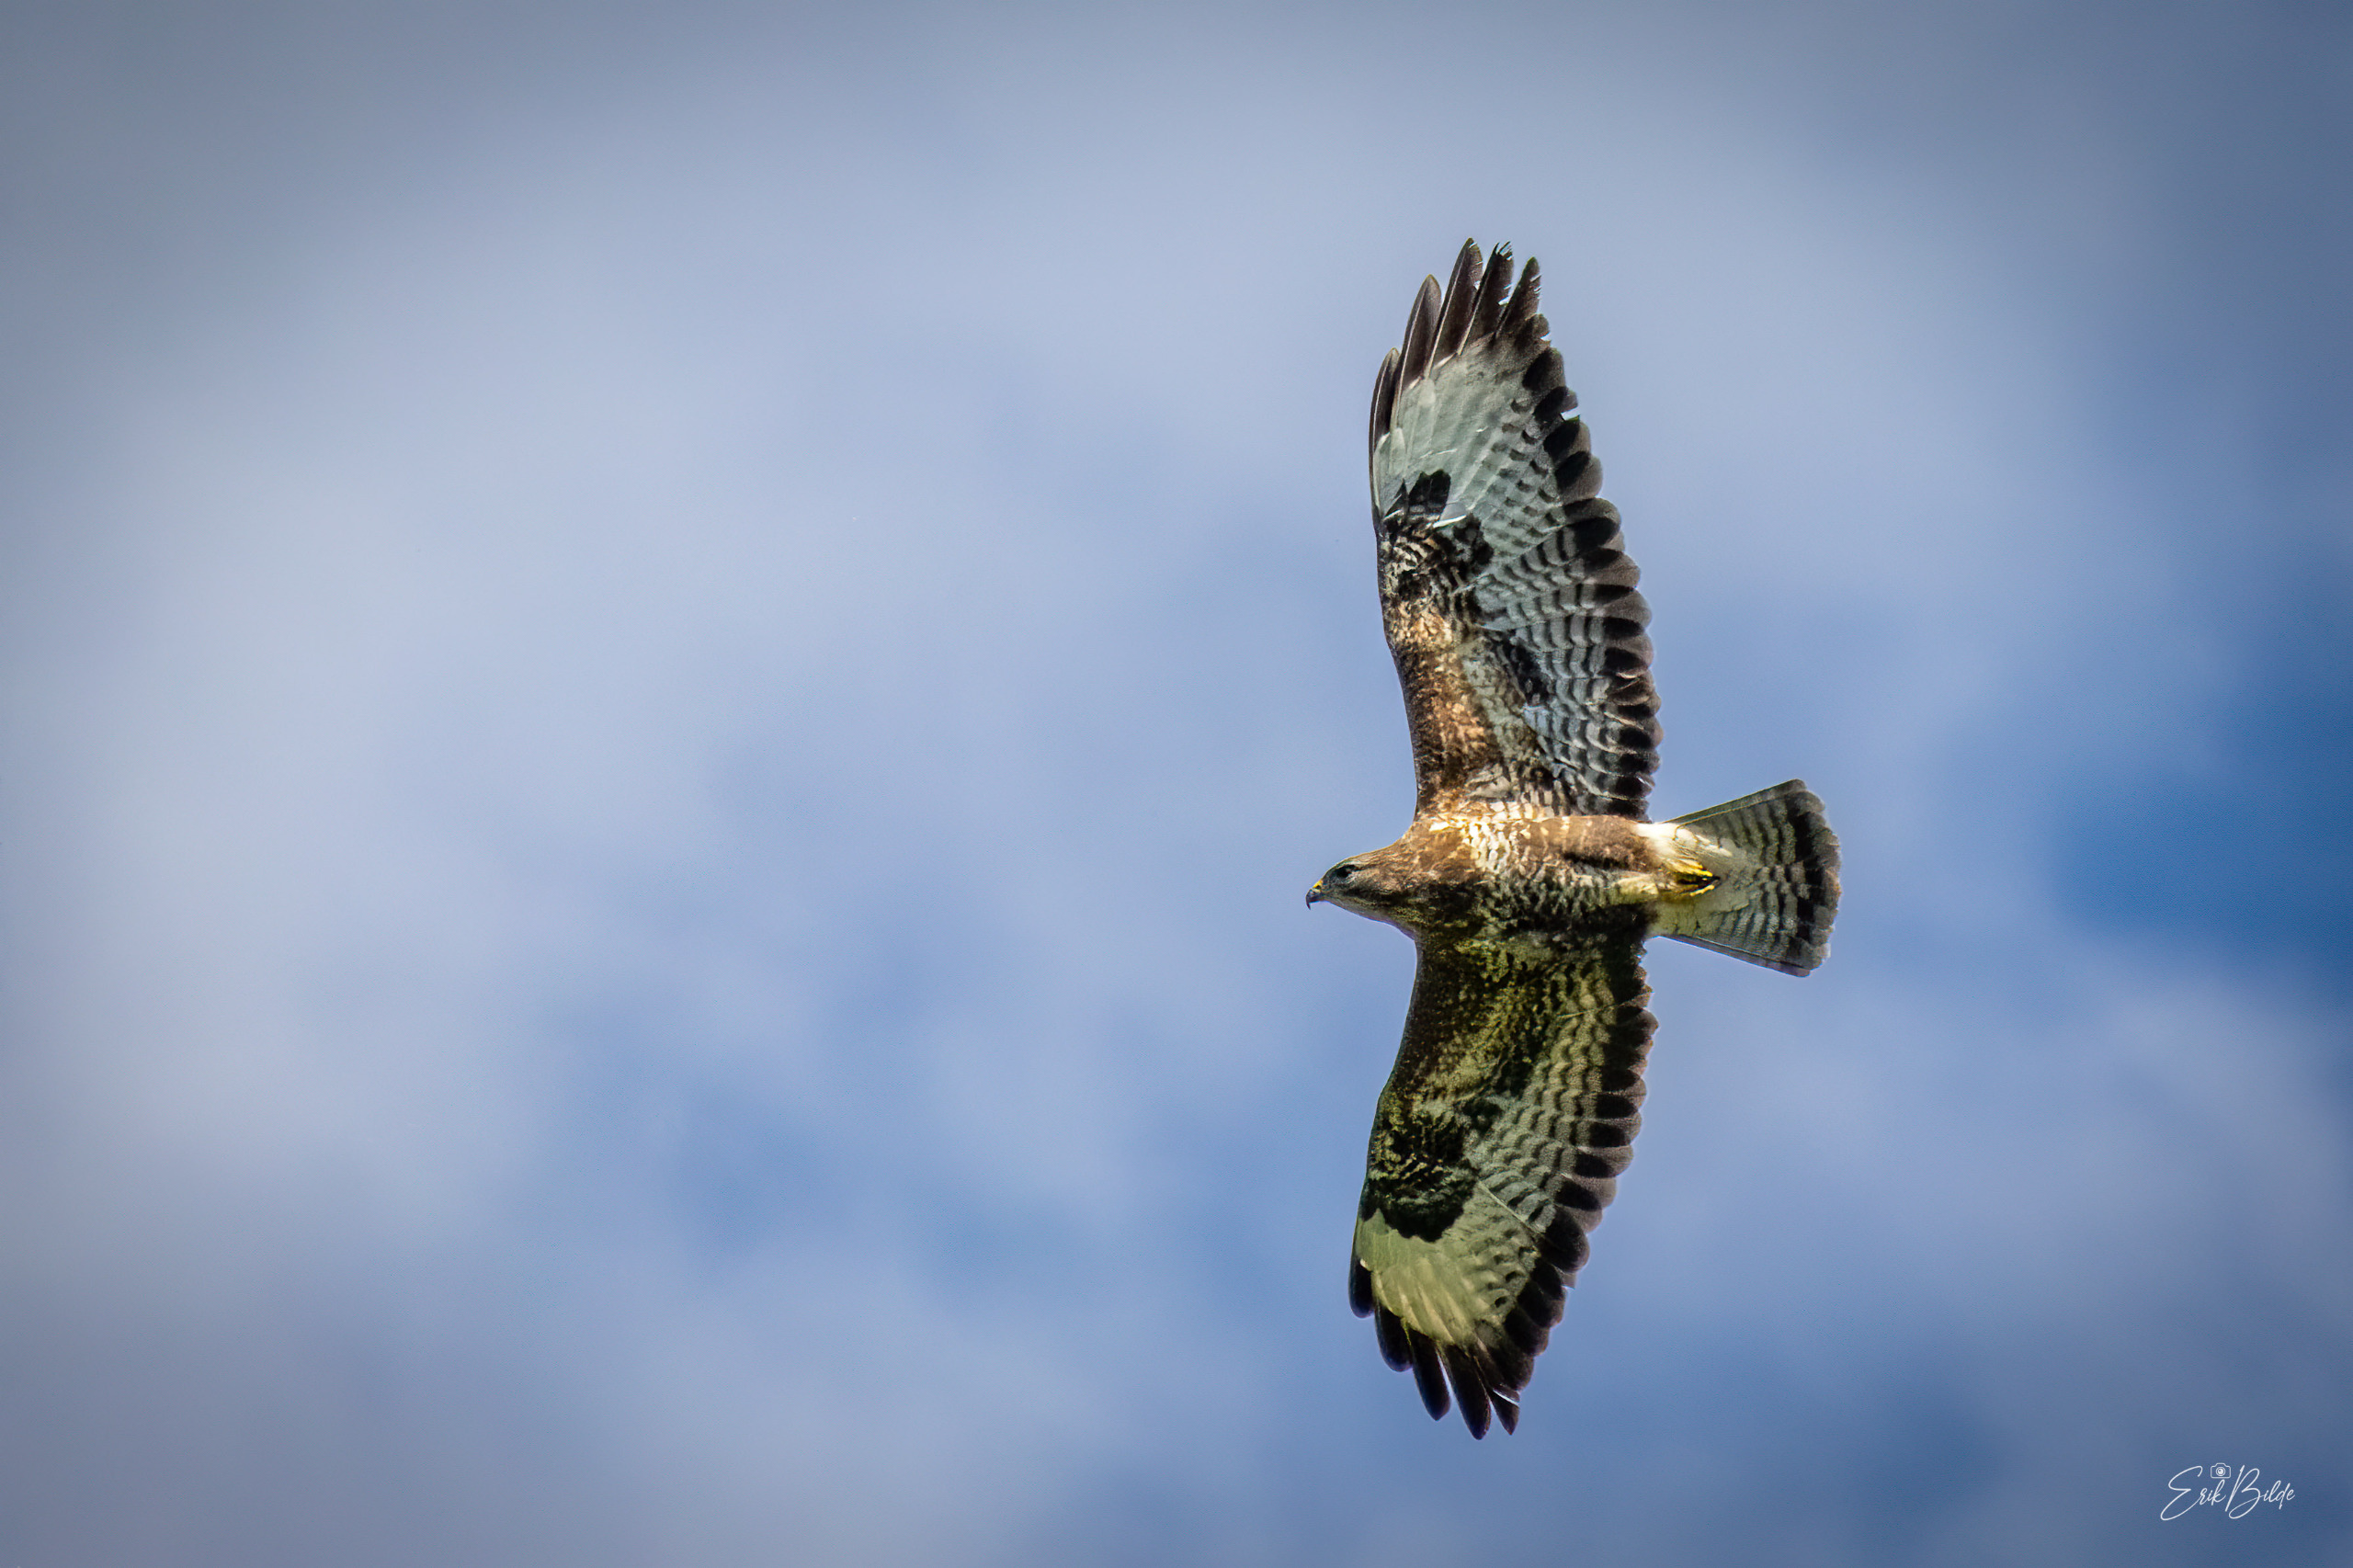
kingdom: Animalia
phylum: Chordata
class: Aves
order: Accipitriformes
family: Accipitridae
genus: Buteo
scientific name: Buteo buteo
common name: Musvåge
